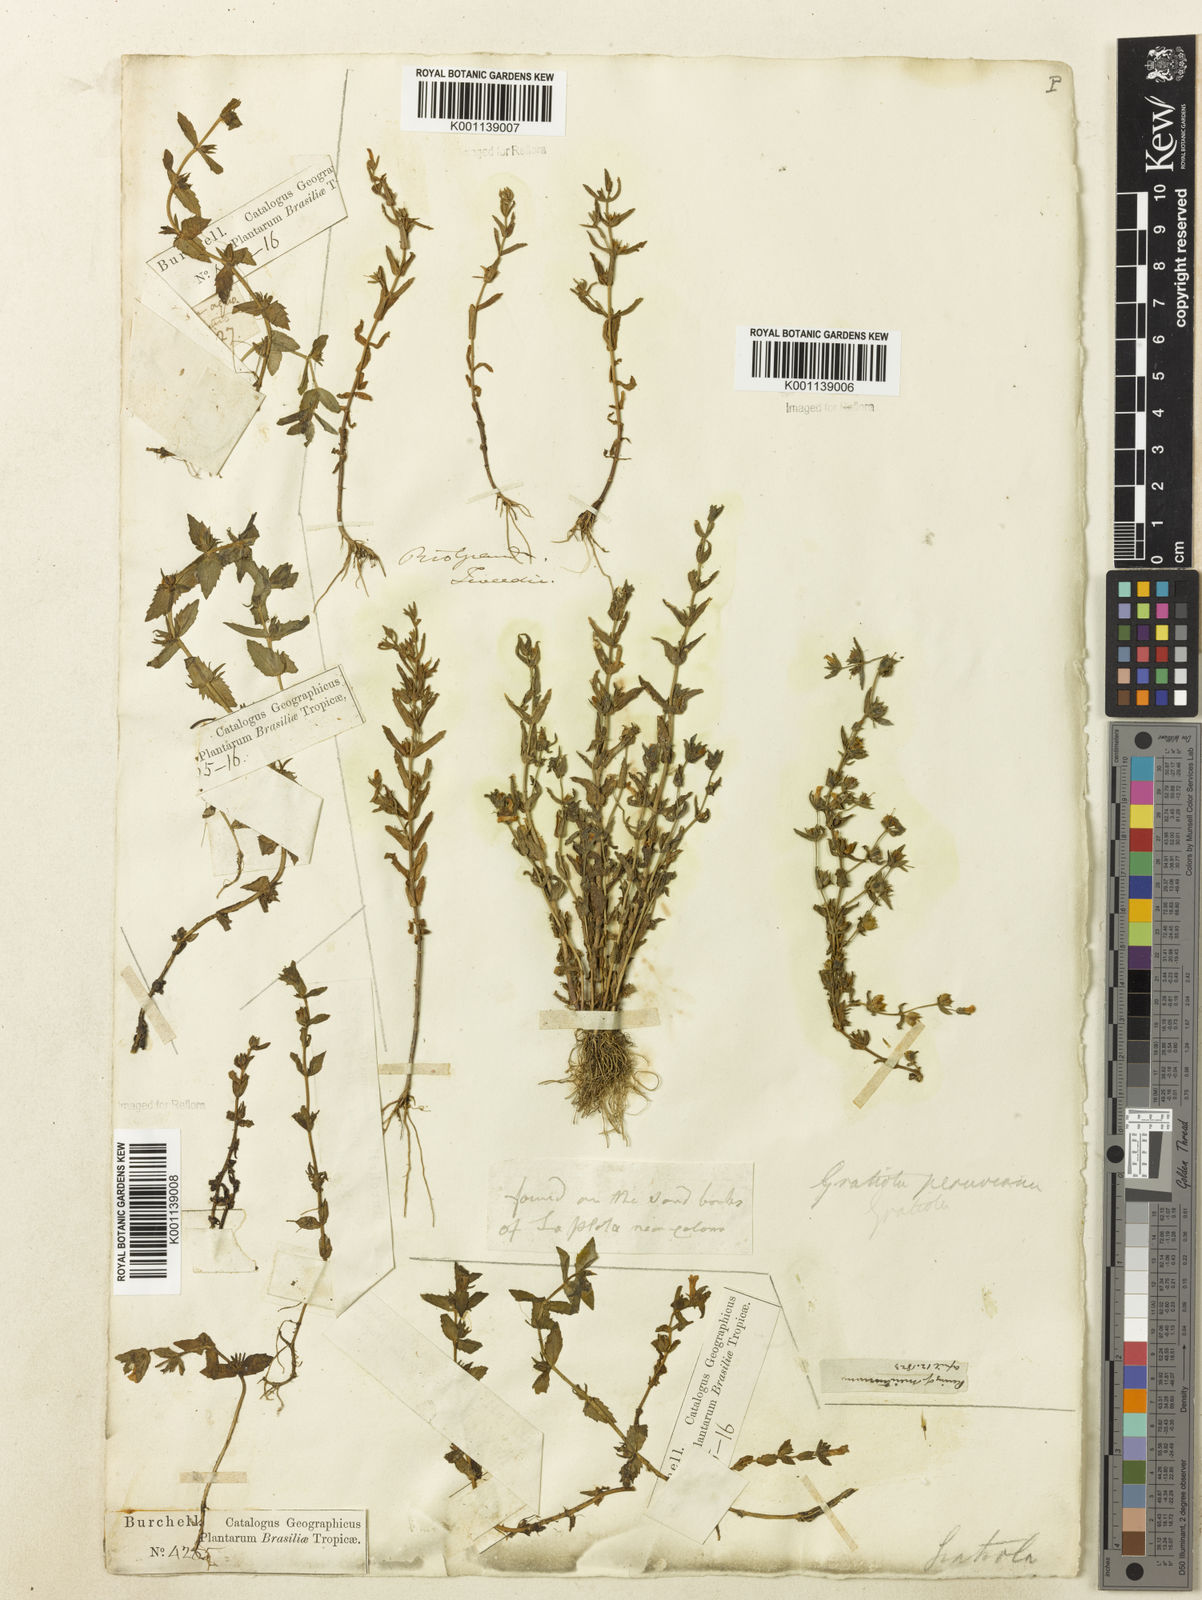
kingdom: Plantae
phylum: Tracheophyta
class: Magnoliopsida
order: Lamiales
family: Plantaginaceae
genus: Gratiola
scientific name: Gratiola peruviana
